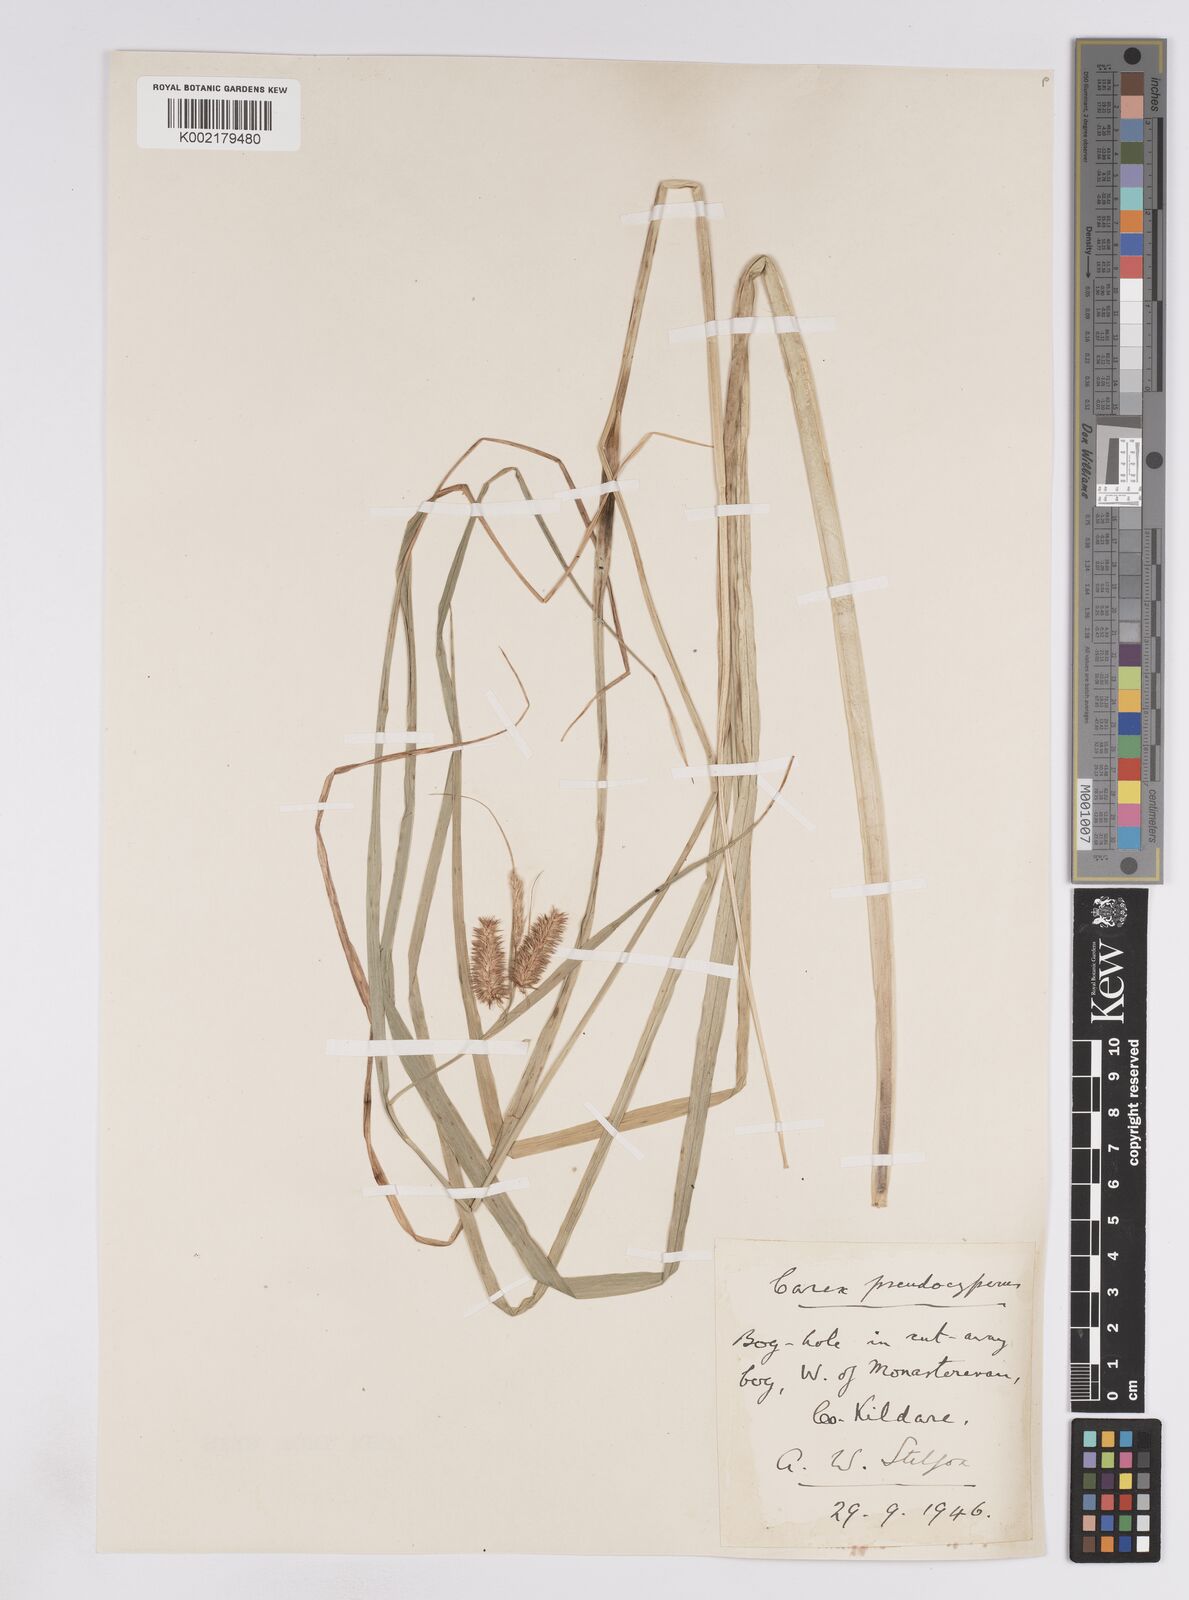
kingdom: Plantae
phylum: Tracheophyta
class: Liliopsida
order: Poales
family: Cyperaceae
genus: Carex
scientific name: Carex pseudocyperus
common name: Cyperus sedge
